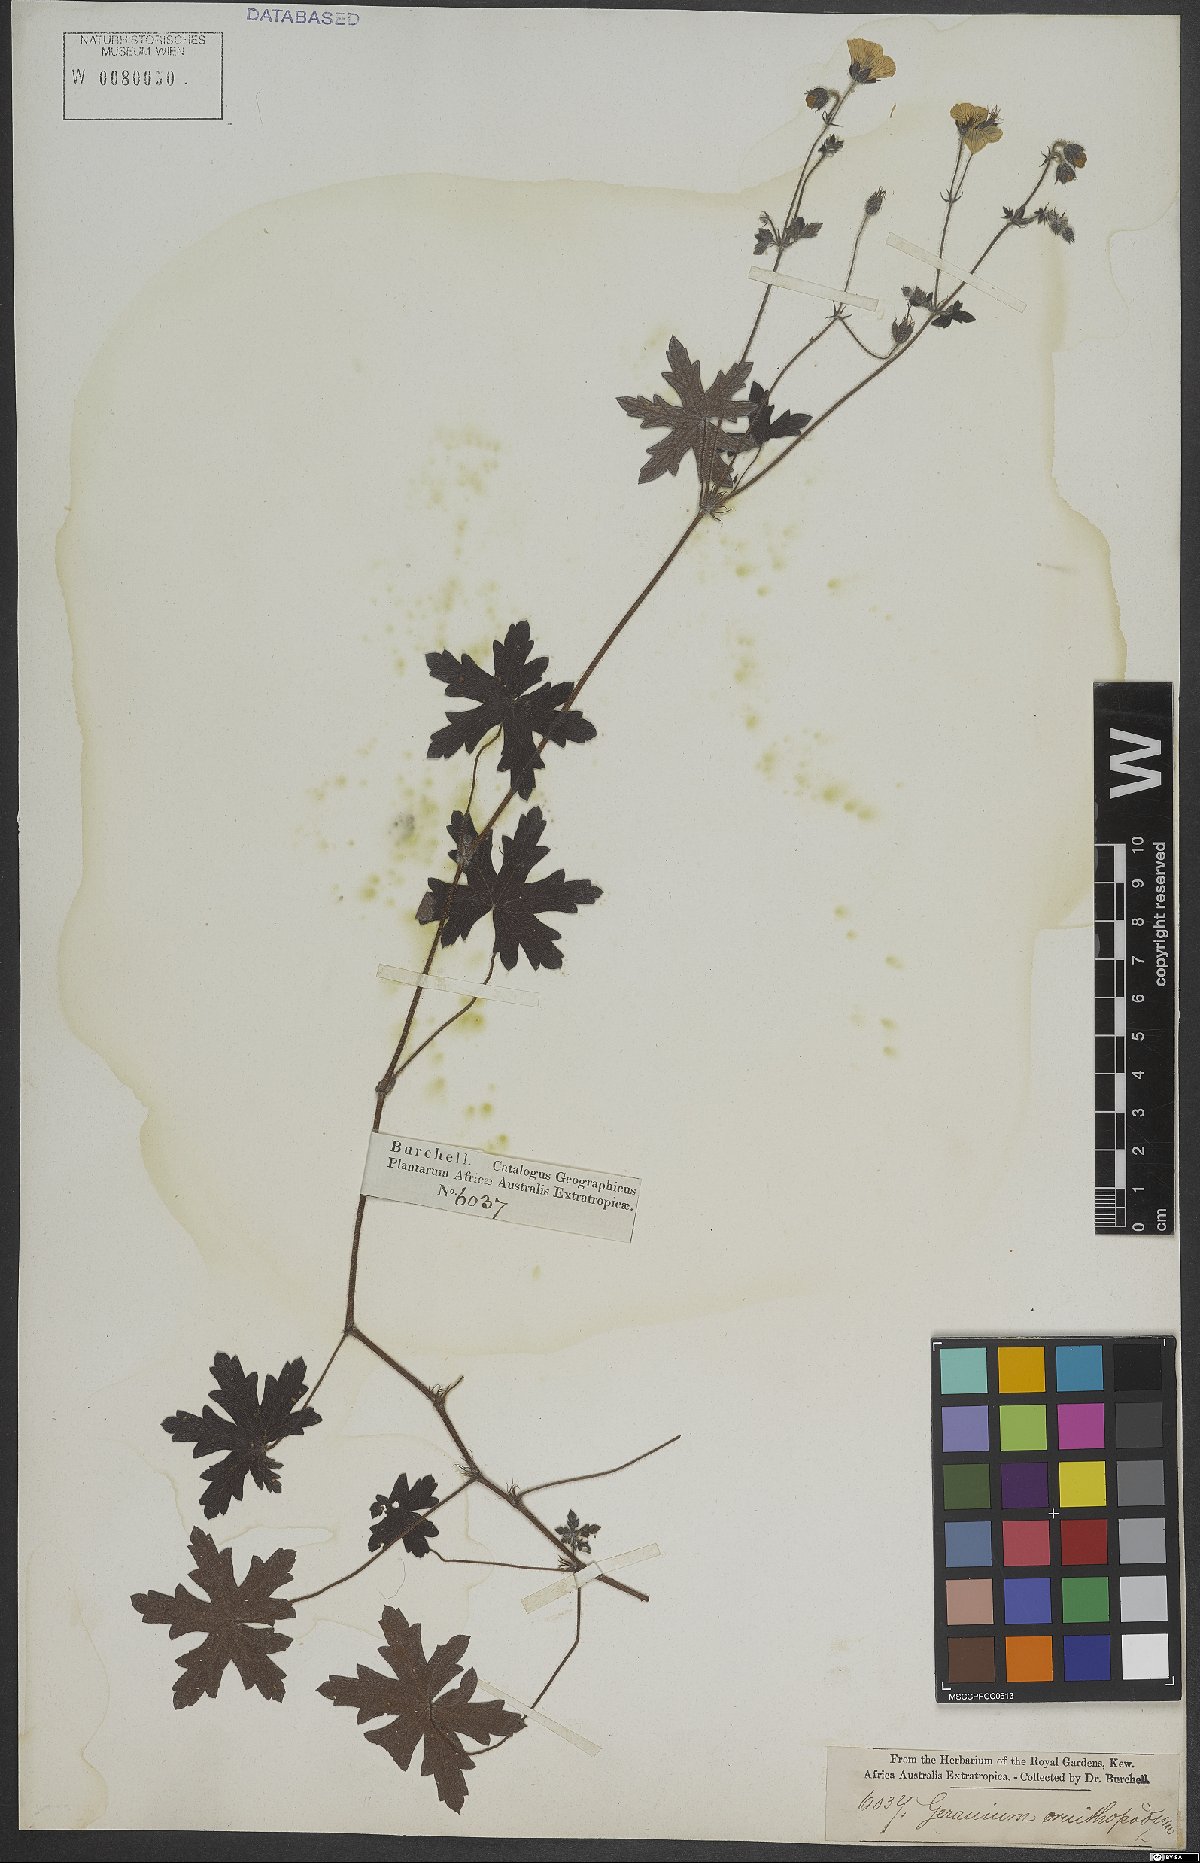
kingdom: Plantae
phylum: Tracheophyta
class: Magnoliopsida
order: Geraniales
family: Geraniaceae
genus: Geranium
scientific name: Geranium ornithopodon
